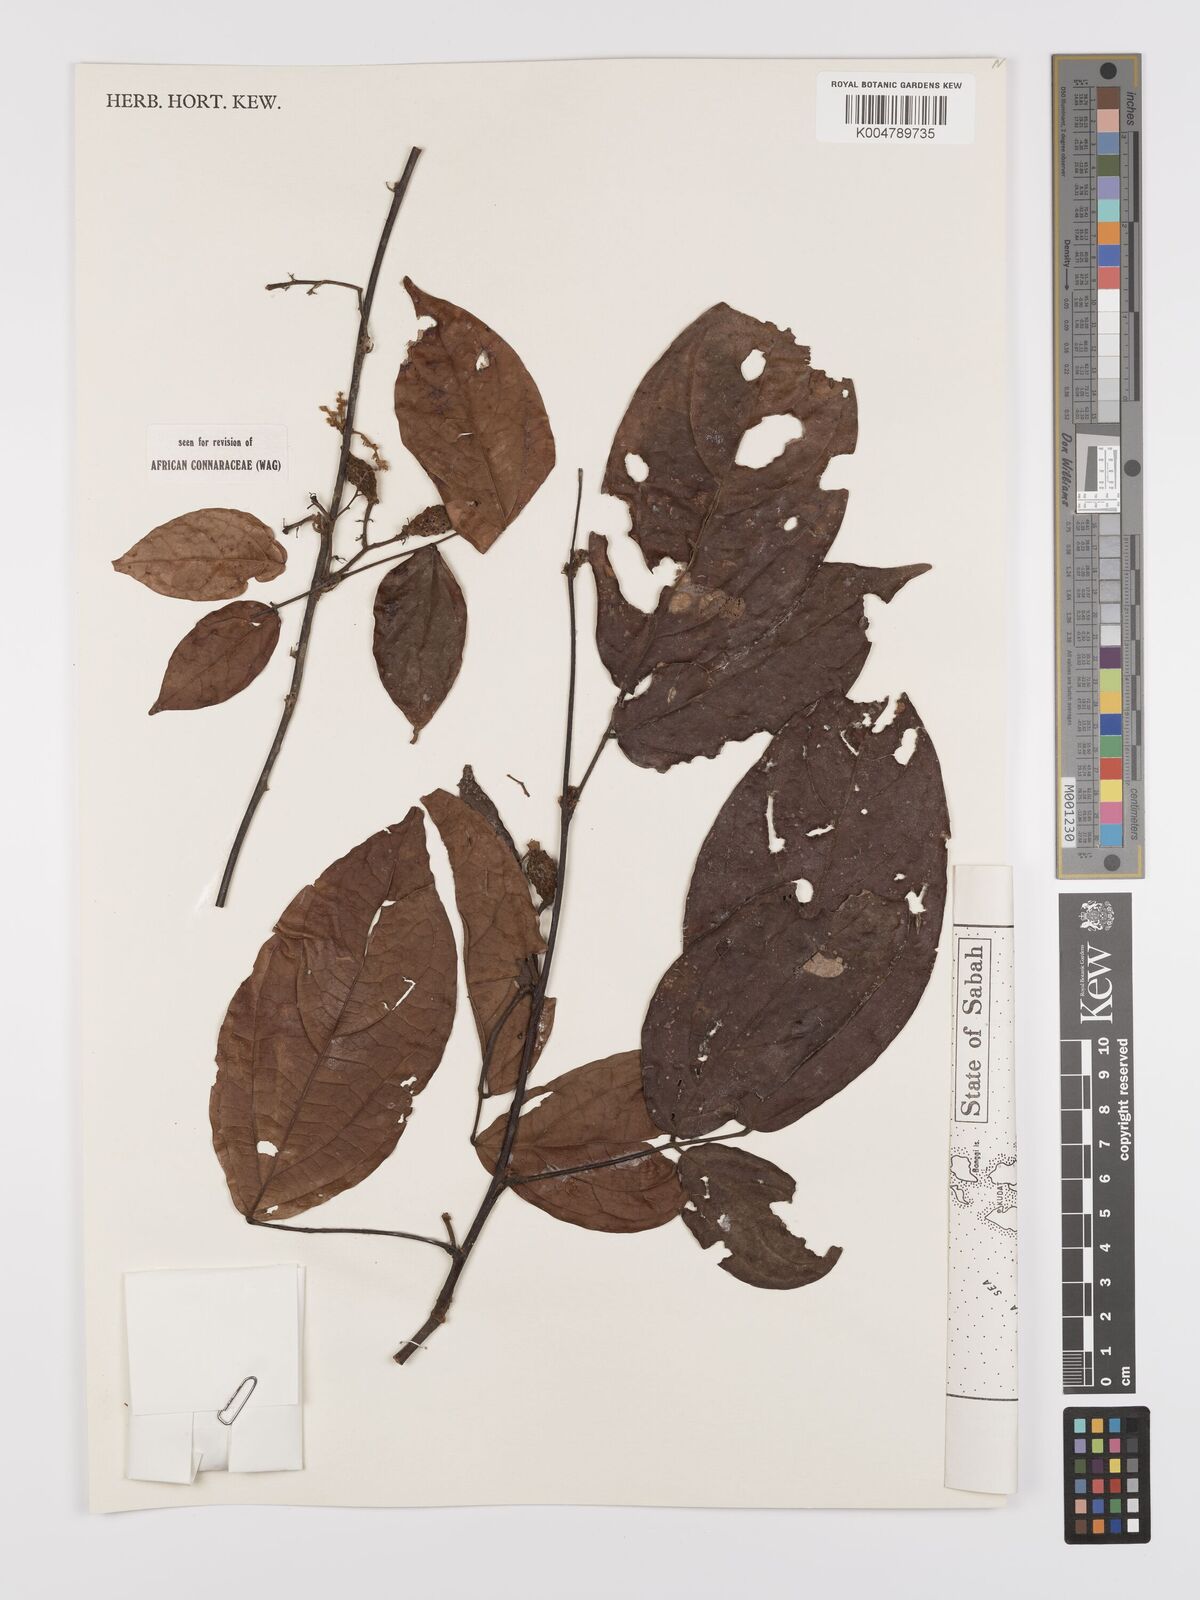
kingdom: Plantae
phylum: Tracheophyta
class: Magnoliopsida
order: Oxalidales
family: Connaraceae
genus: Agelaea
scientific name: Agelaea borneensis
